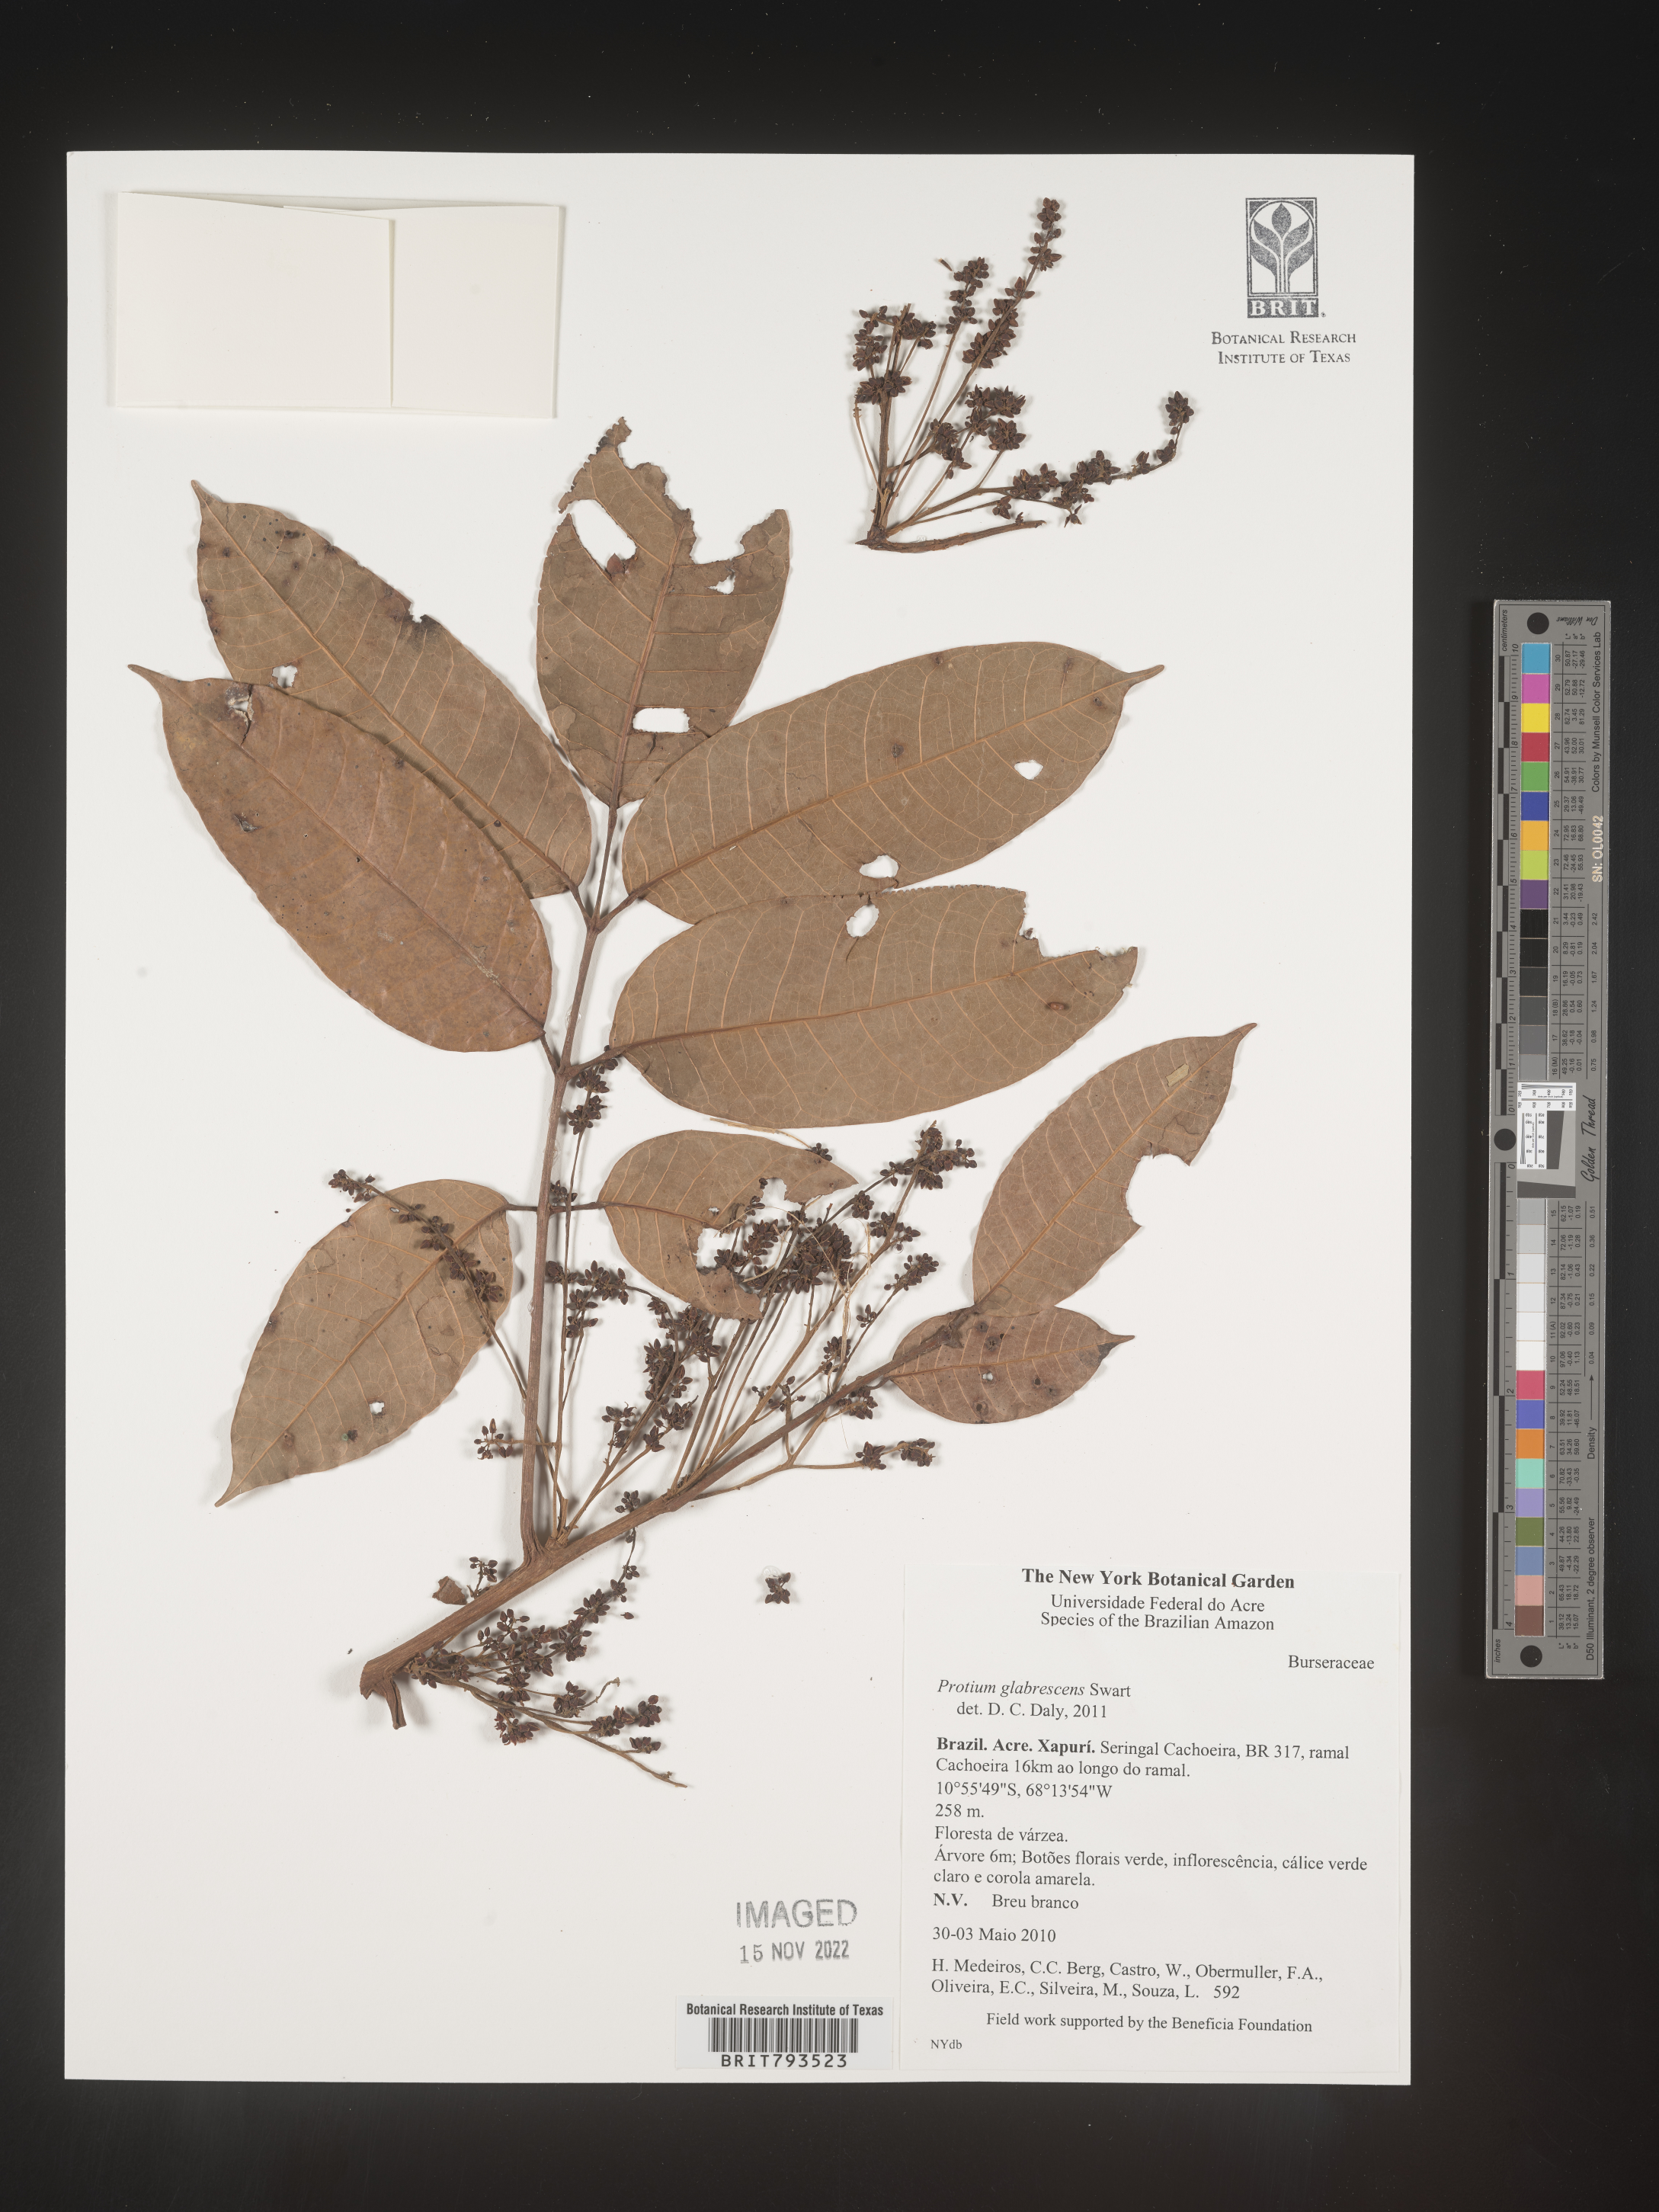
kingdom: Plantae
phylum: Tracheophyta
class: Magnoliopsida
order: Sapindales
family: Burseraceae
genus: Protium
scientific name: Protium glabrescens
